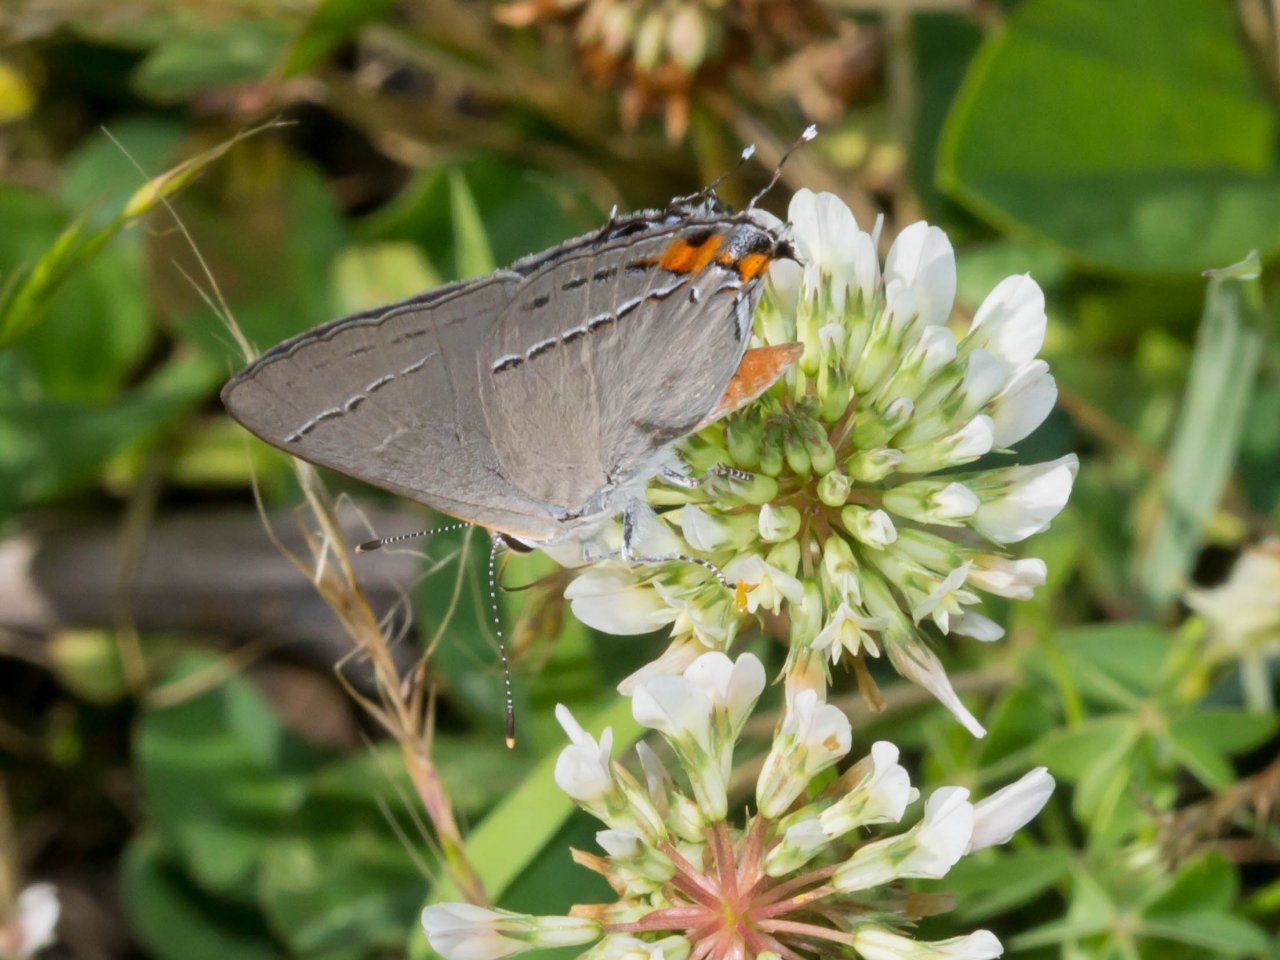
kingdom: Animalia
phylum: Arthropoda
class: Insecta
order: Lepidoptera
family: Lycaenidae
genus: Strymon
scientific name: Strymon melinus
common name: Gray Hairstreak
